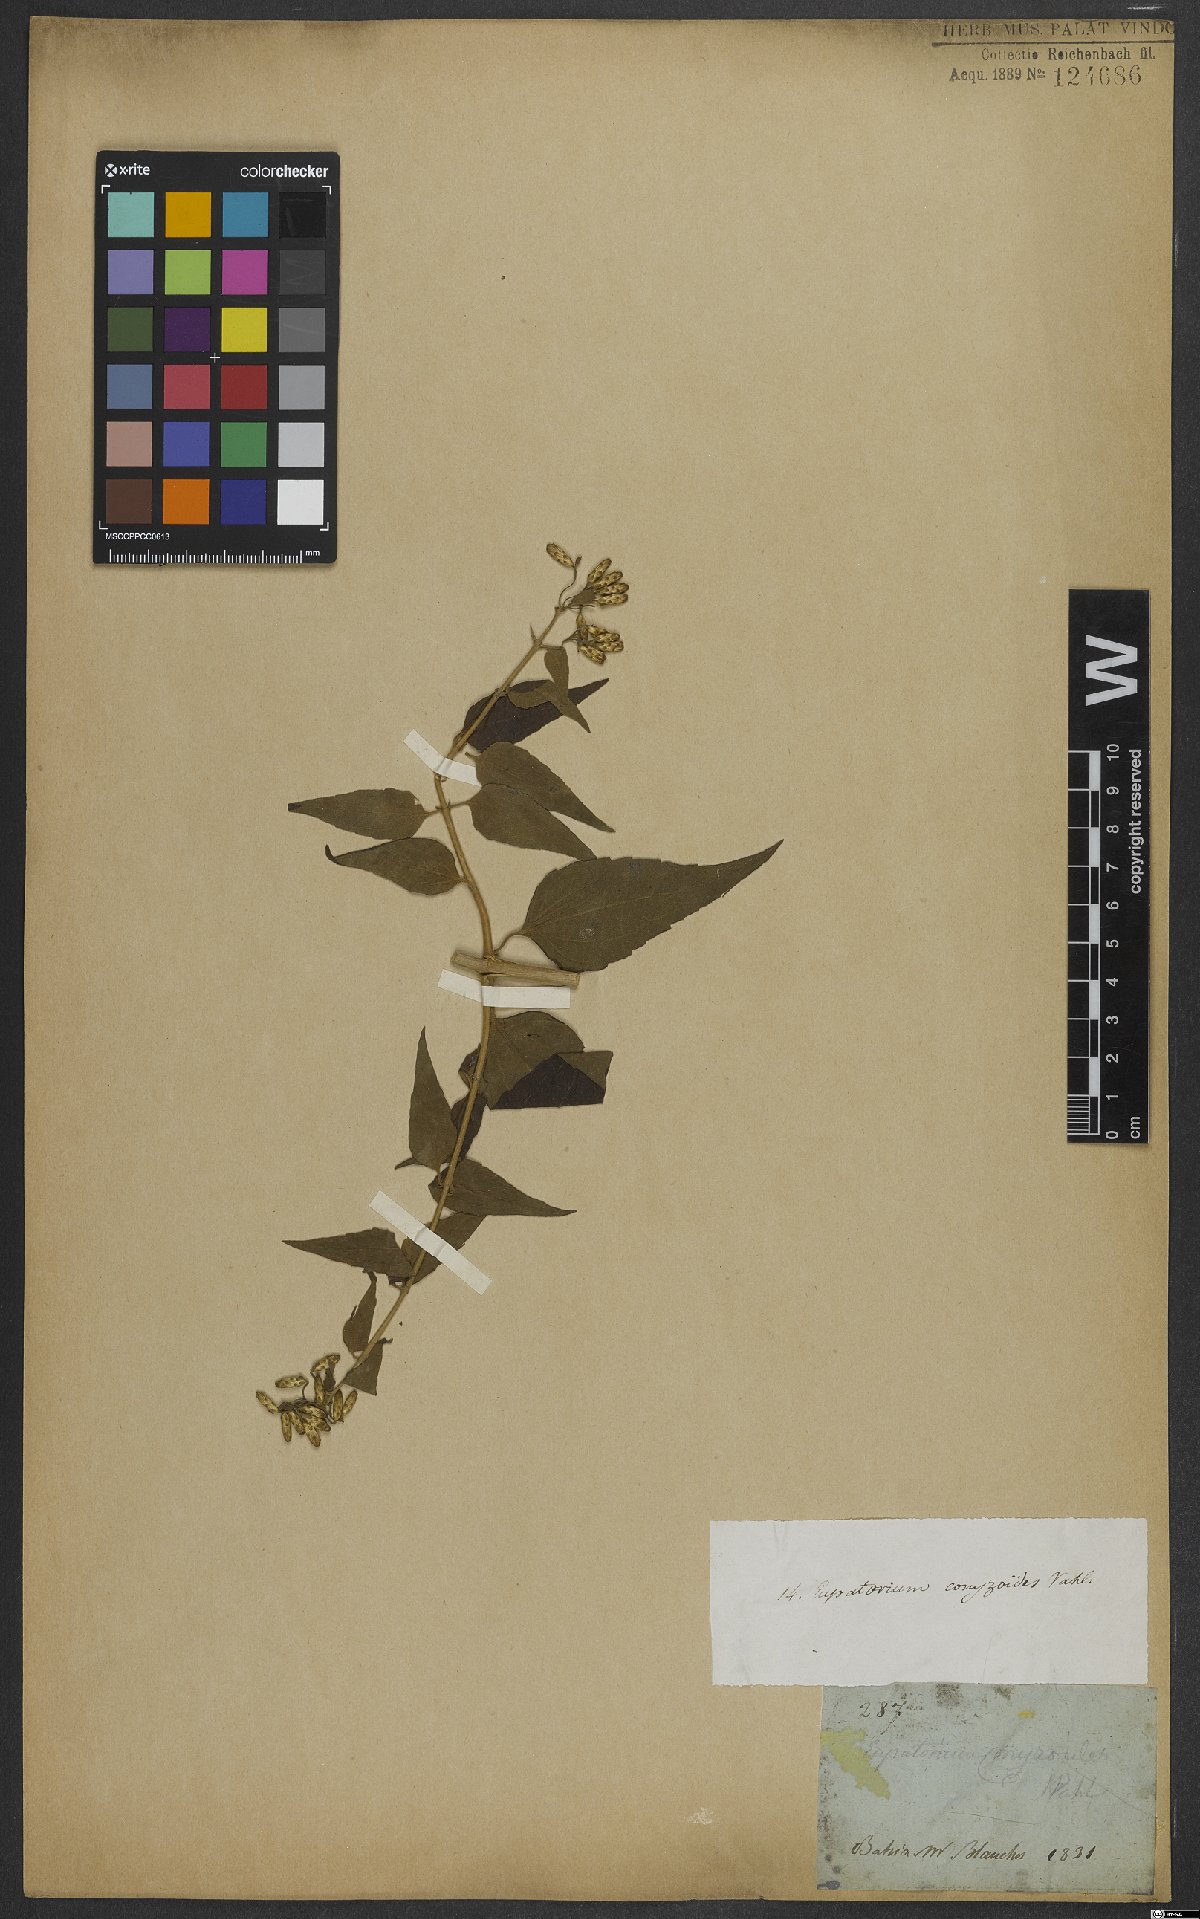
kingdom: Plantae
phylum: Tracheophyta
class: Magnoliopsida
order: Asterales
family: Asteraceae
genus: Chromolaena
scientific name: Chromolaena odorata
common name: Siamweed
